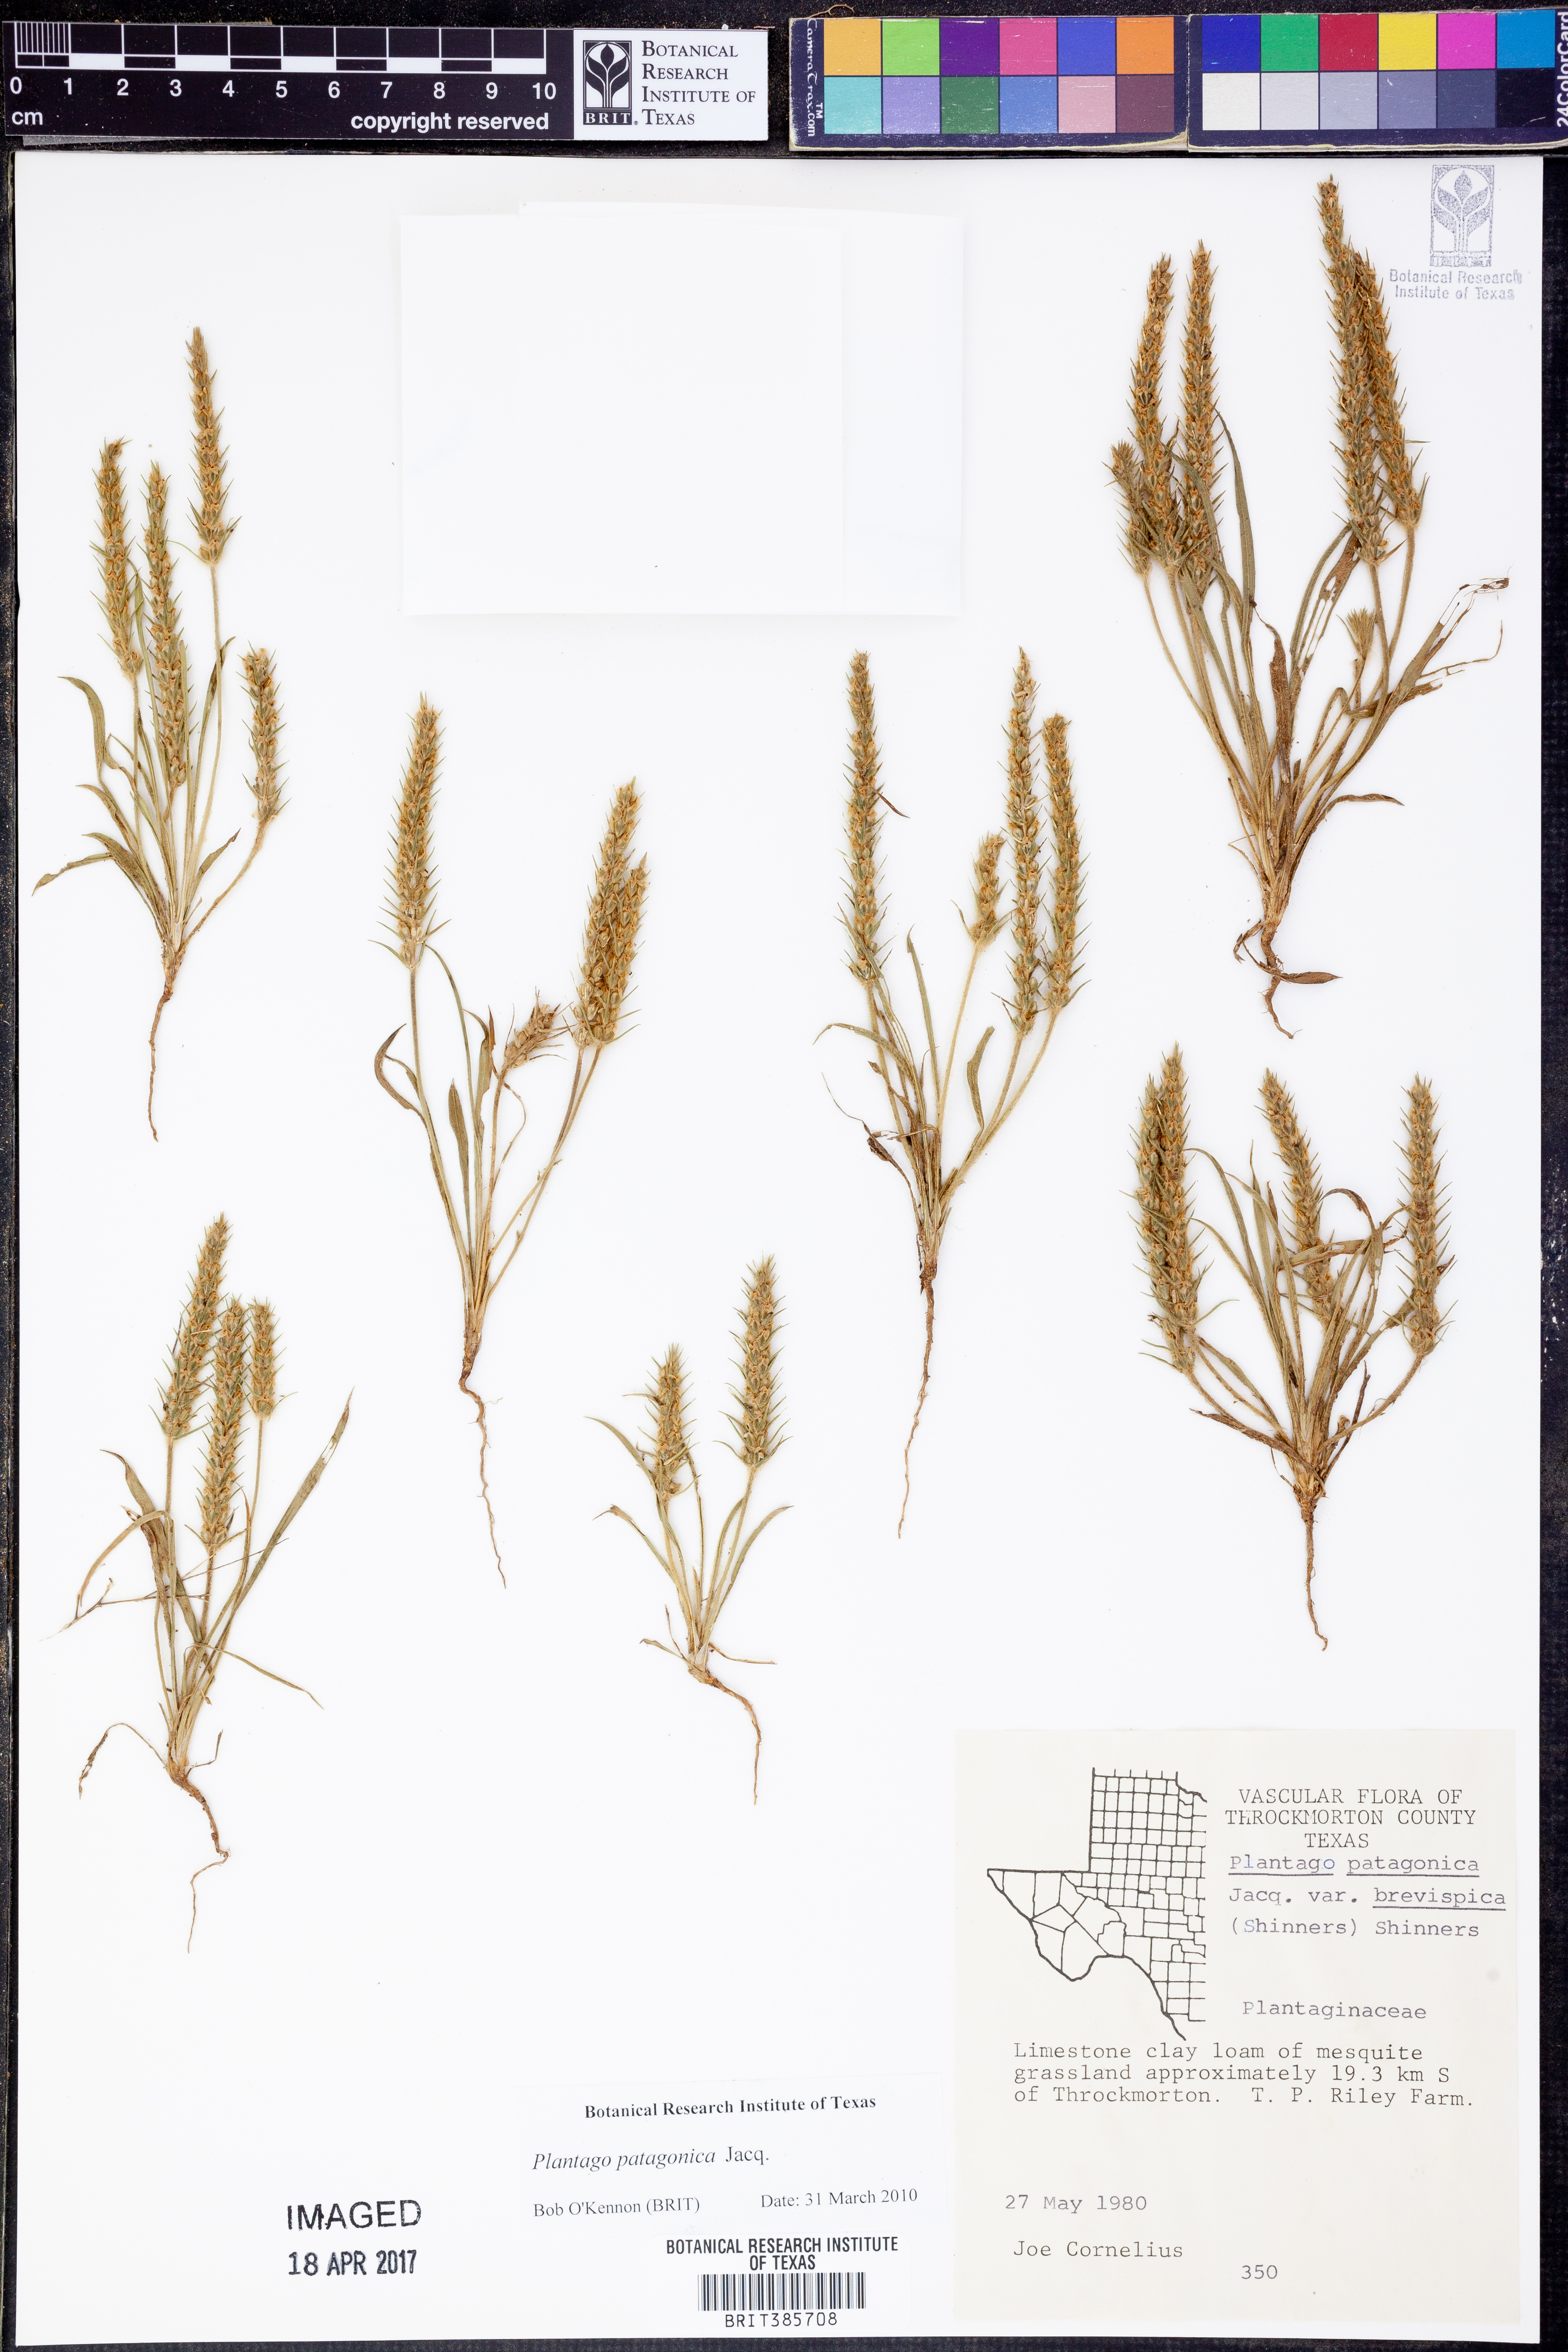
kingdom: Plantae
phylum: Tracheophyta
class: Magnoliopsida
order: Lamiales
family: Plantaginaceae
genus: Plantago
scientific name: Plantago patagonica
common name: Patagonia indian-wheat
